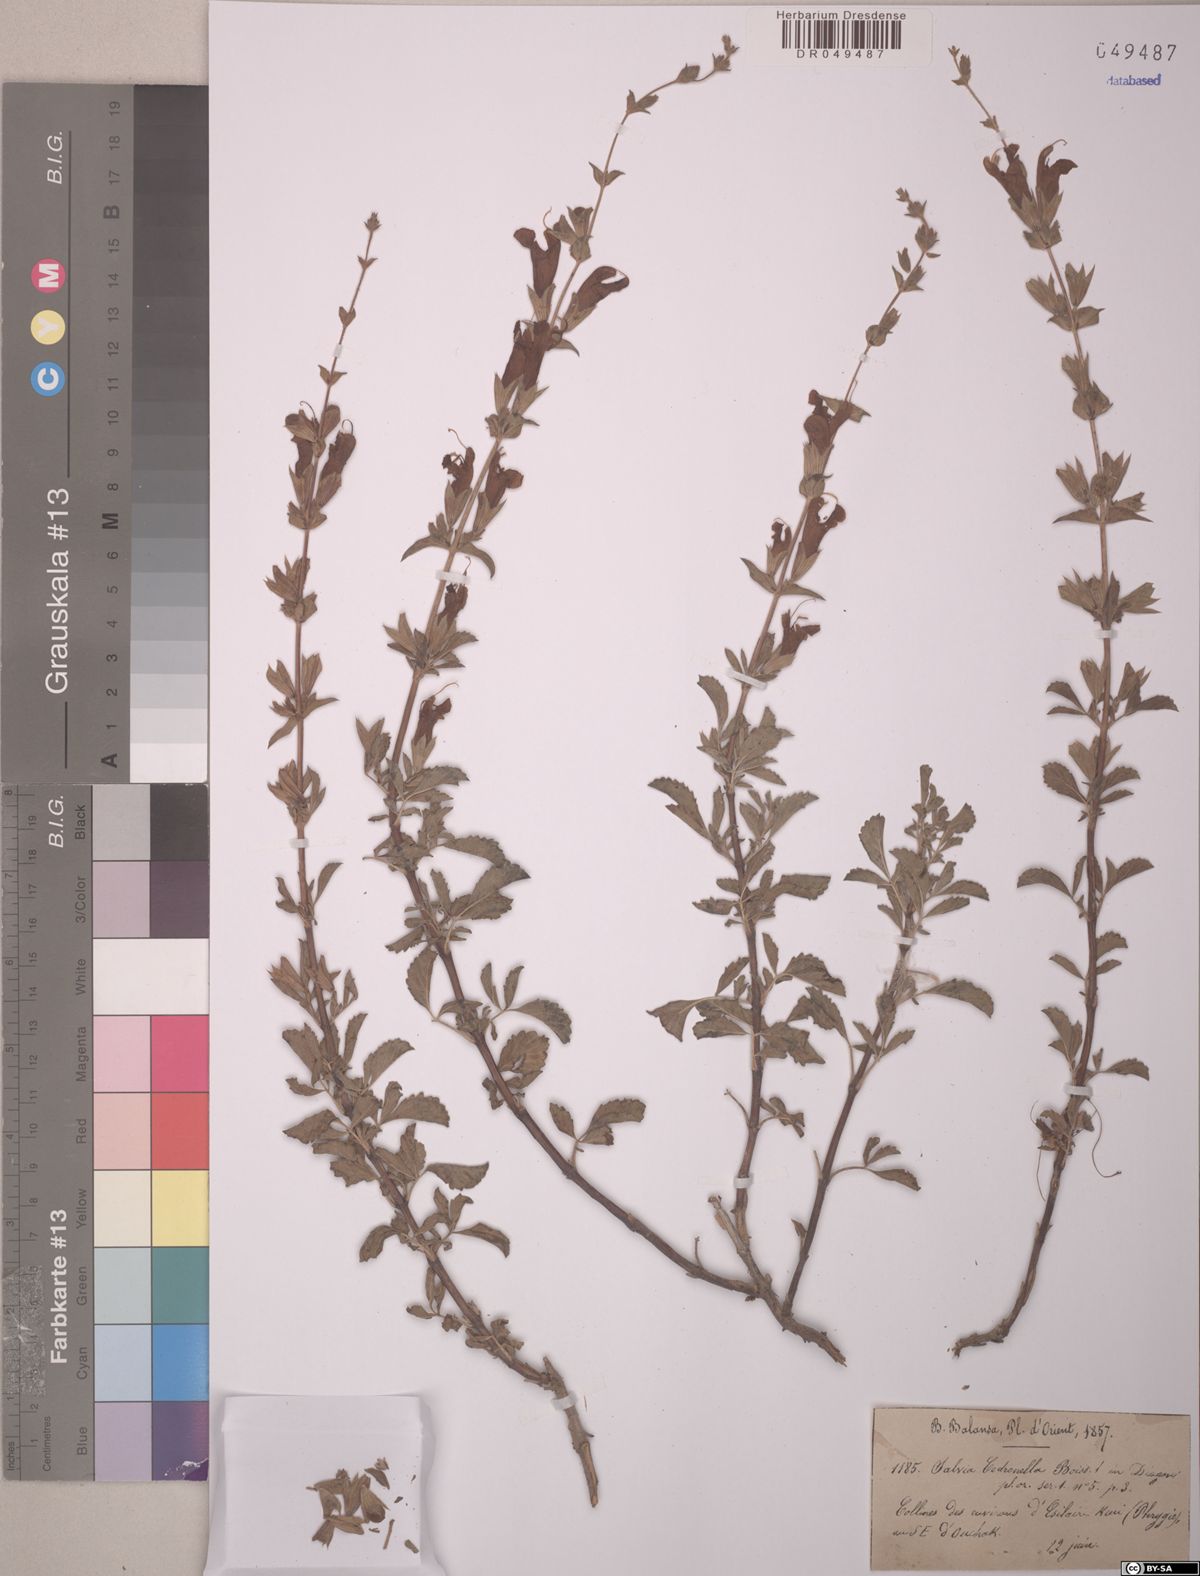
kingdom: Plantae
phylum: Tracheophyta
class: Magnoliopsida
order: Lamiales
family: Lamiaceae
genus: Salvia
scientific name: Salvia cedronella
